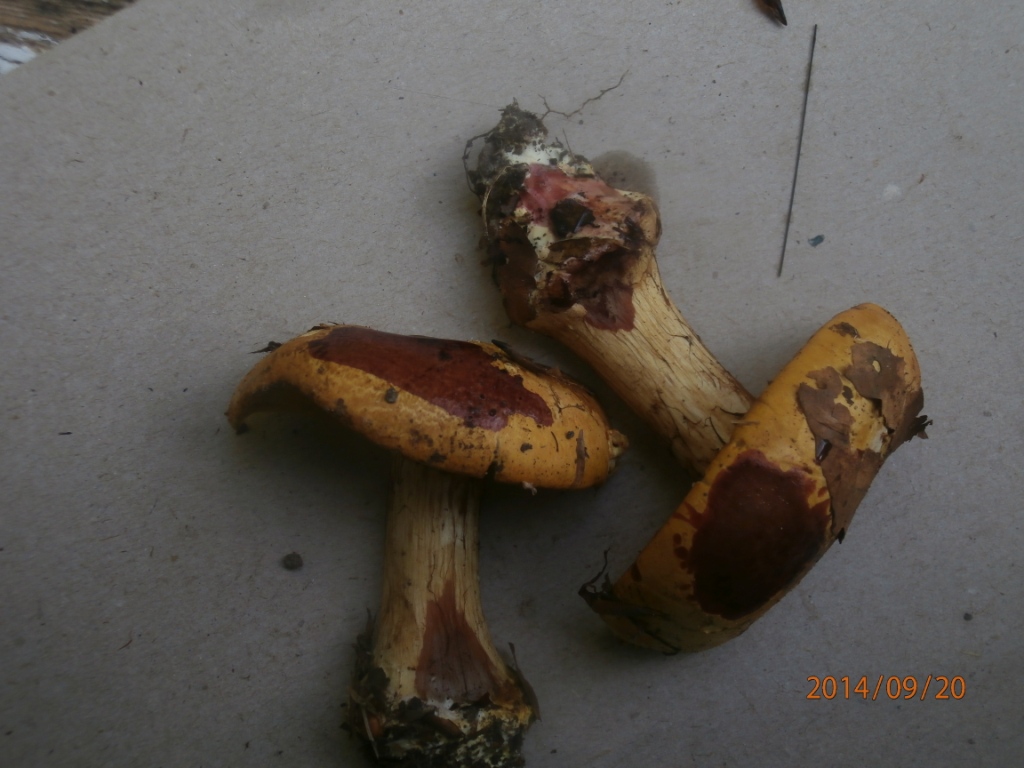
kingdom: Fungi
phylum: Basidiomycota
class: Agaricomycetes
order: Agaricales
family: Cortinariaceae
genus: Calonarius
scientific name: Calonarius alcalinophilus
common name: gyldenbrun slørhat
